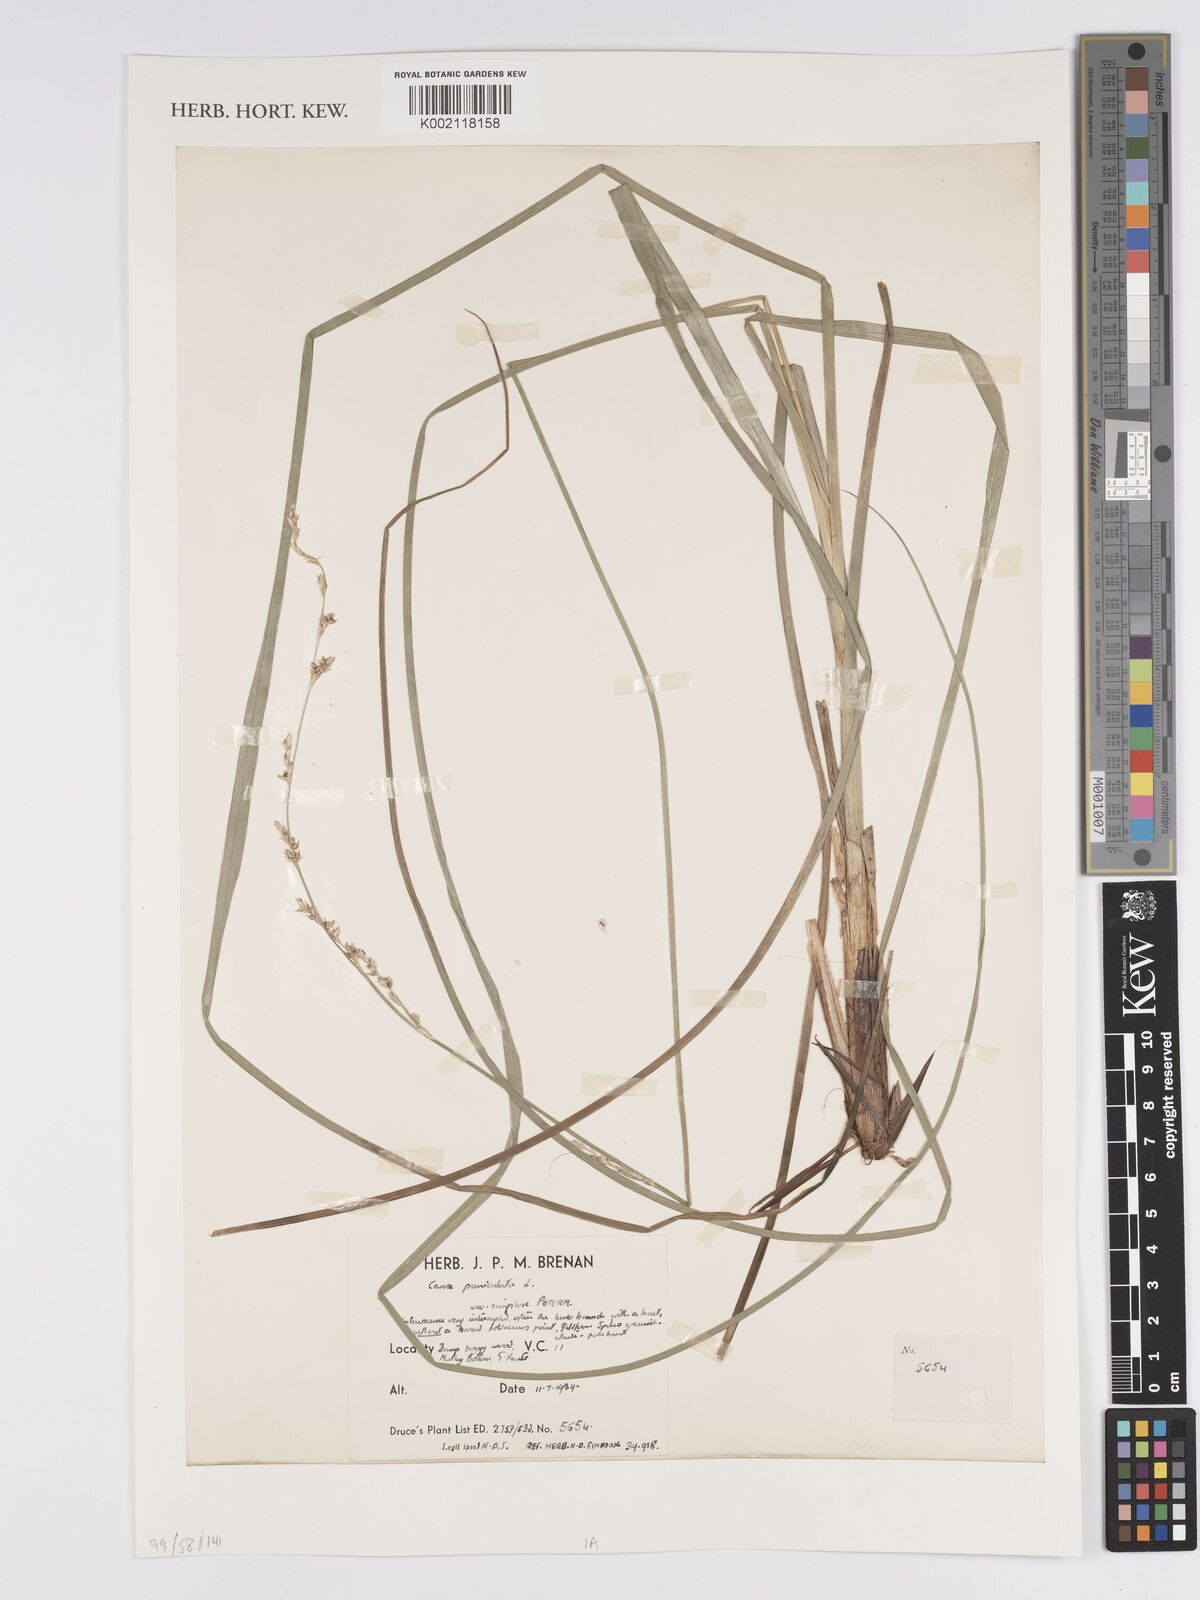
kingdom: Plantae
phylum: Tracheophyta
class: Liliopsida
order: Poales
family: Cyperaceae
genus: Carex
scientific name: Carex paniculata
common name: Greater tussock-sedge
